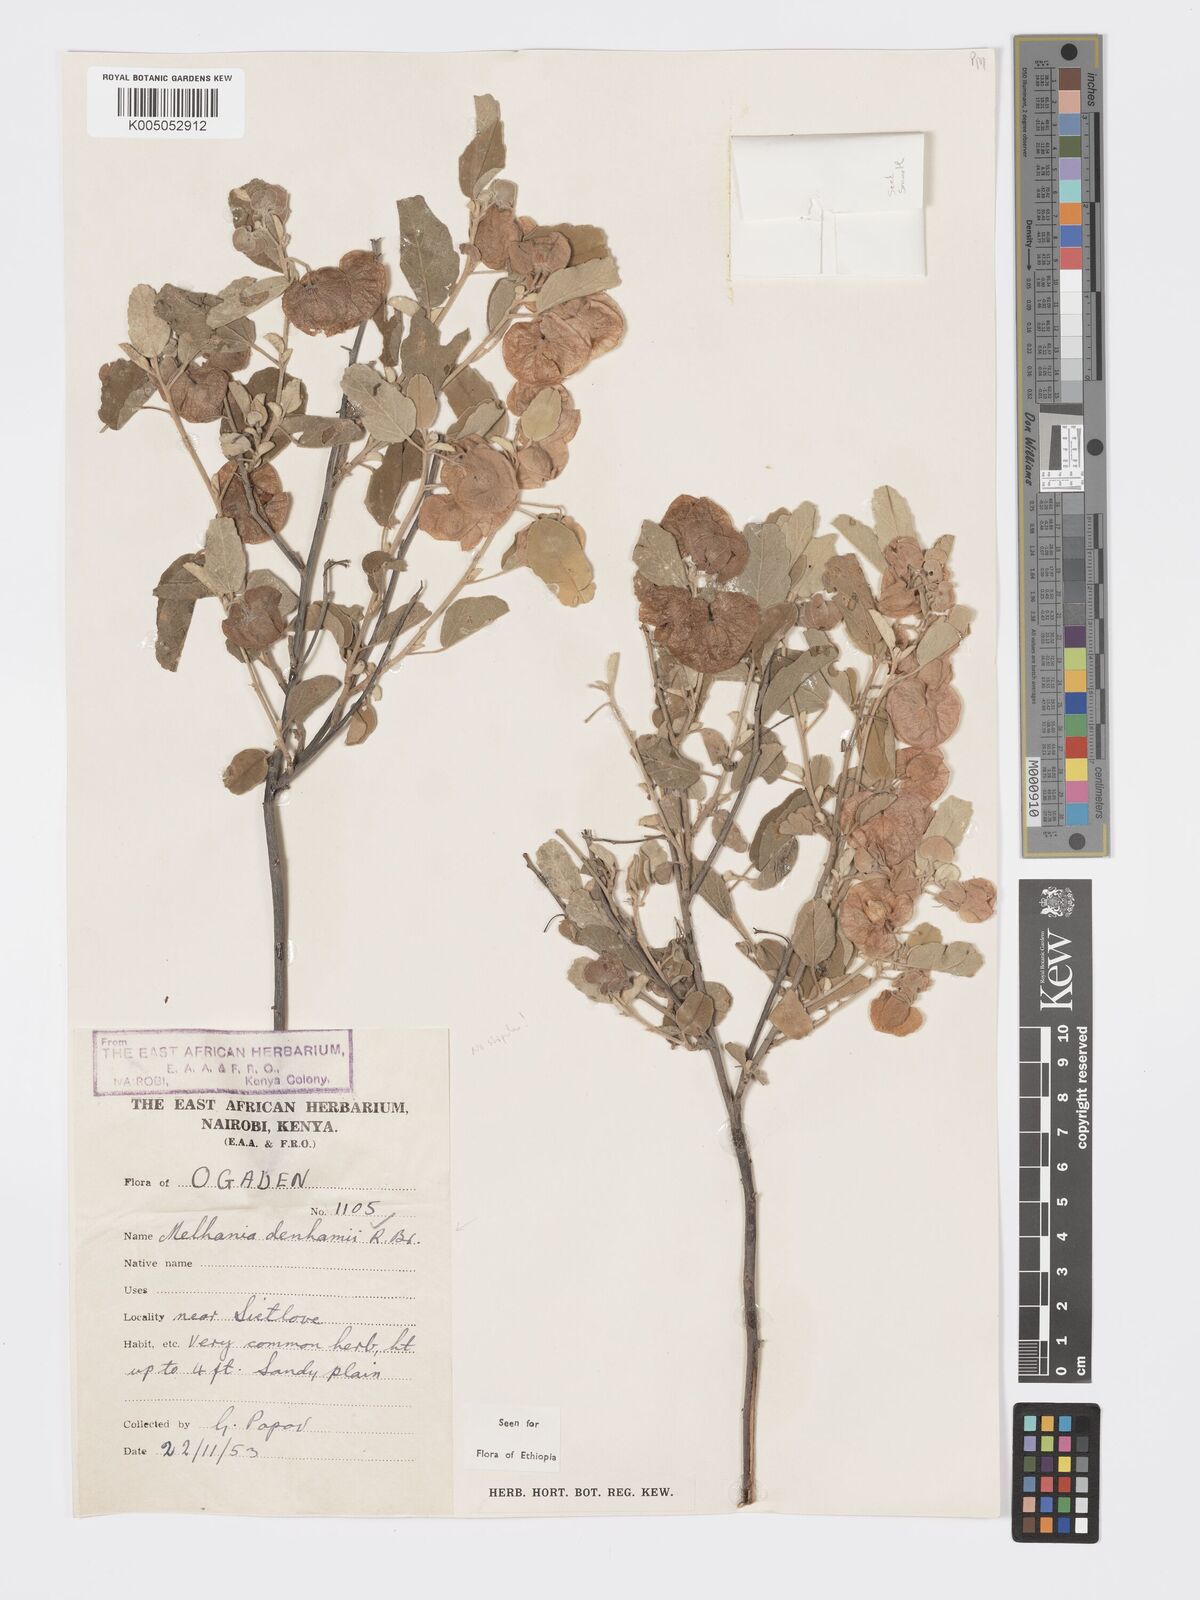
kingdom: Plantae
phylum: Tracheophyta
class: Magnoliopsida
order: Malvales
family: Malvaceae
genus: Melhania
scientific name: Melhania denhamii
